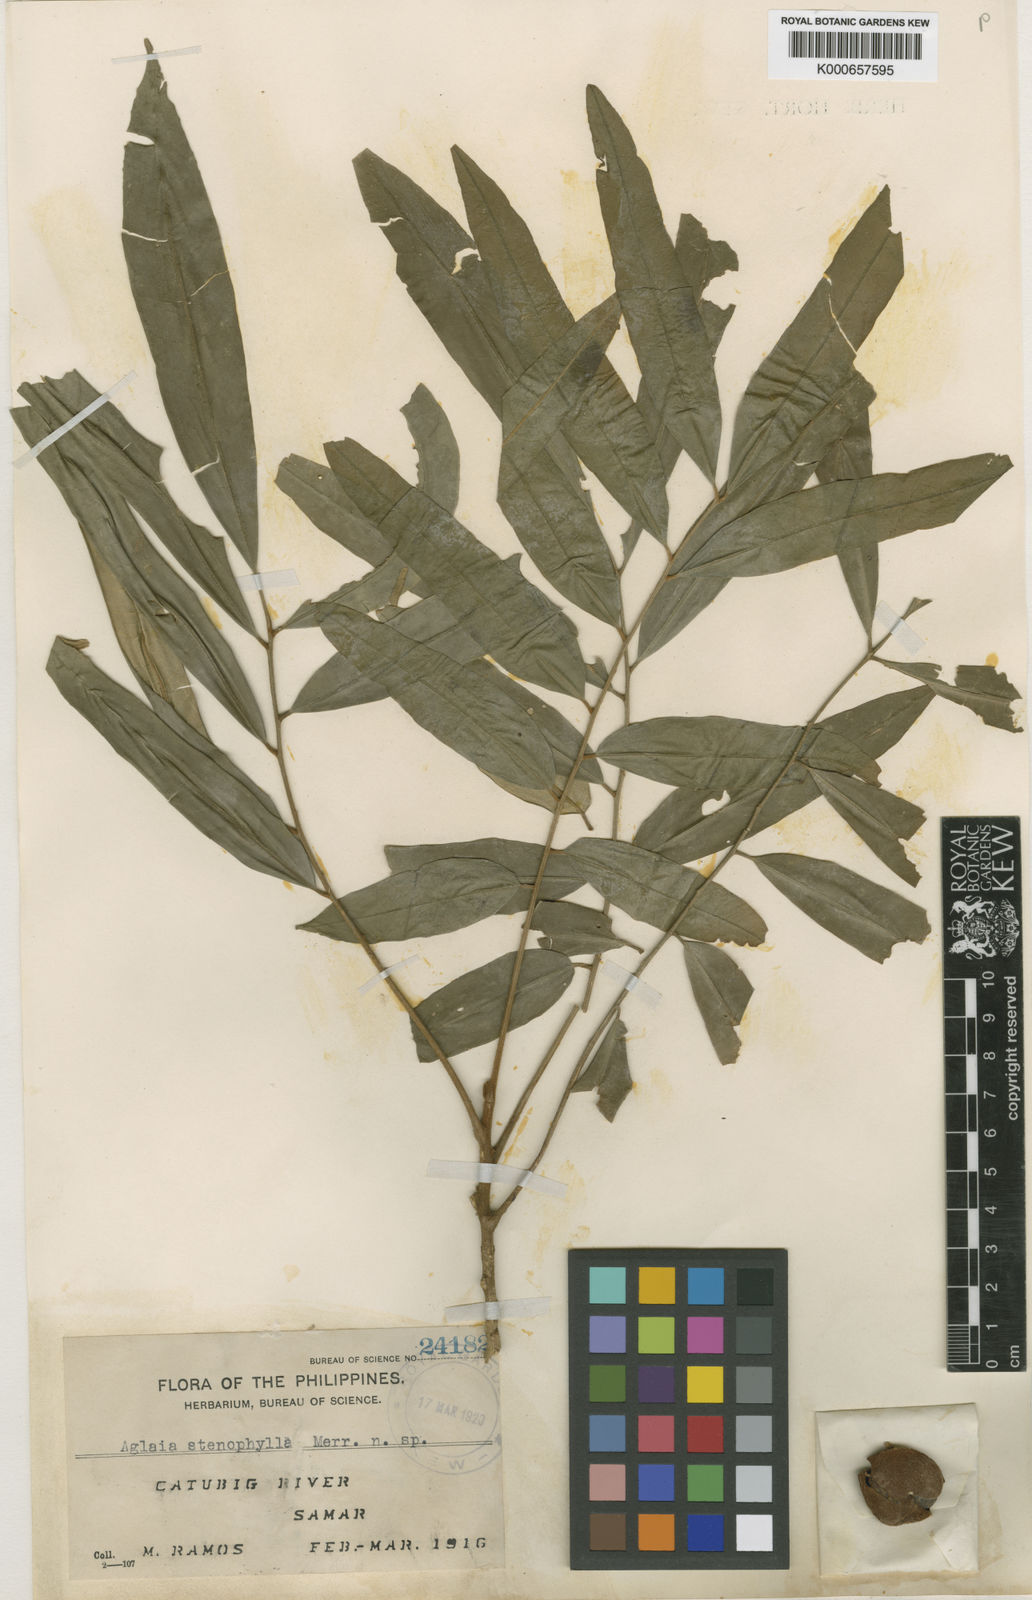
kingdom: Plantae
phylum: Tracheophyta
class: Magnoliopsida
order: Sapindales
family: Meliaceae
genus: Aglaia
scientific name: Aglaia angustifolia
